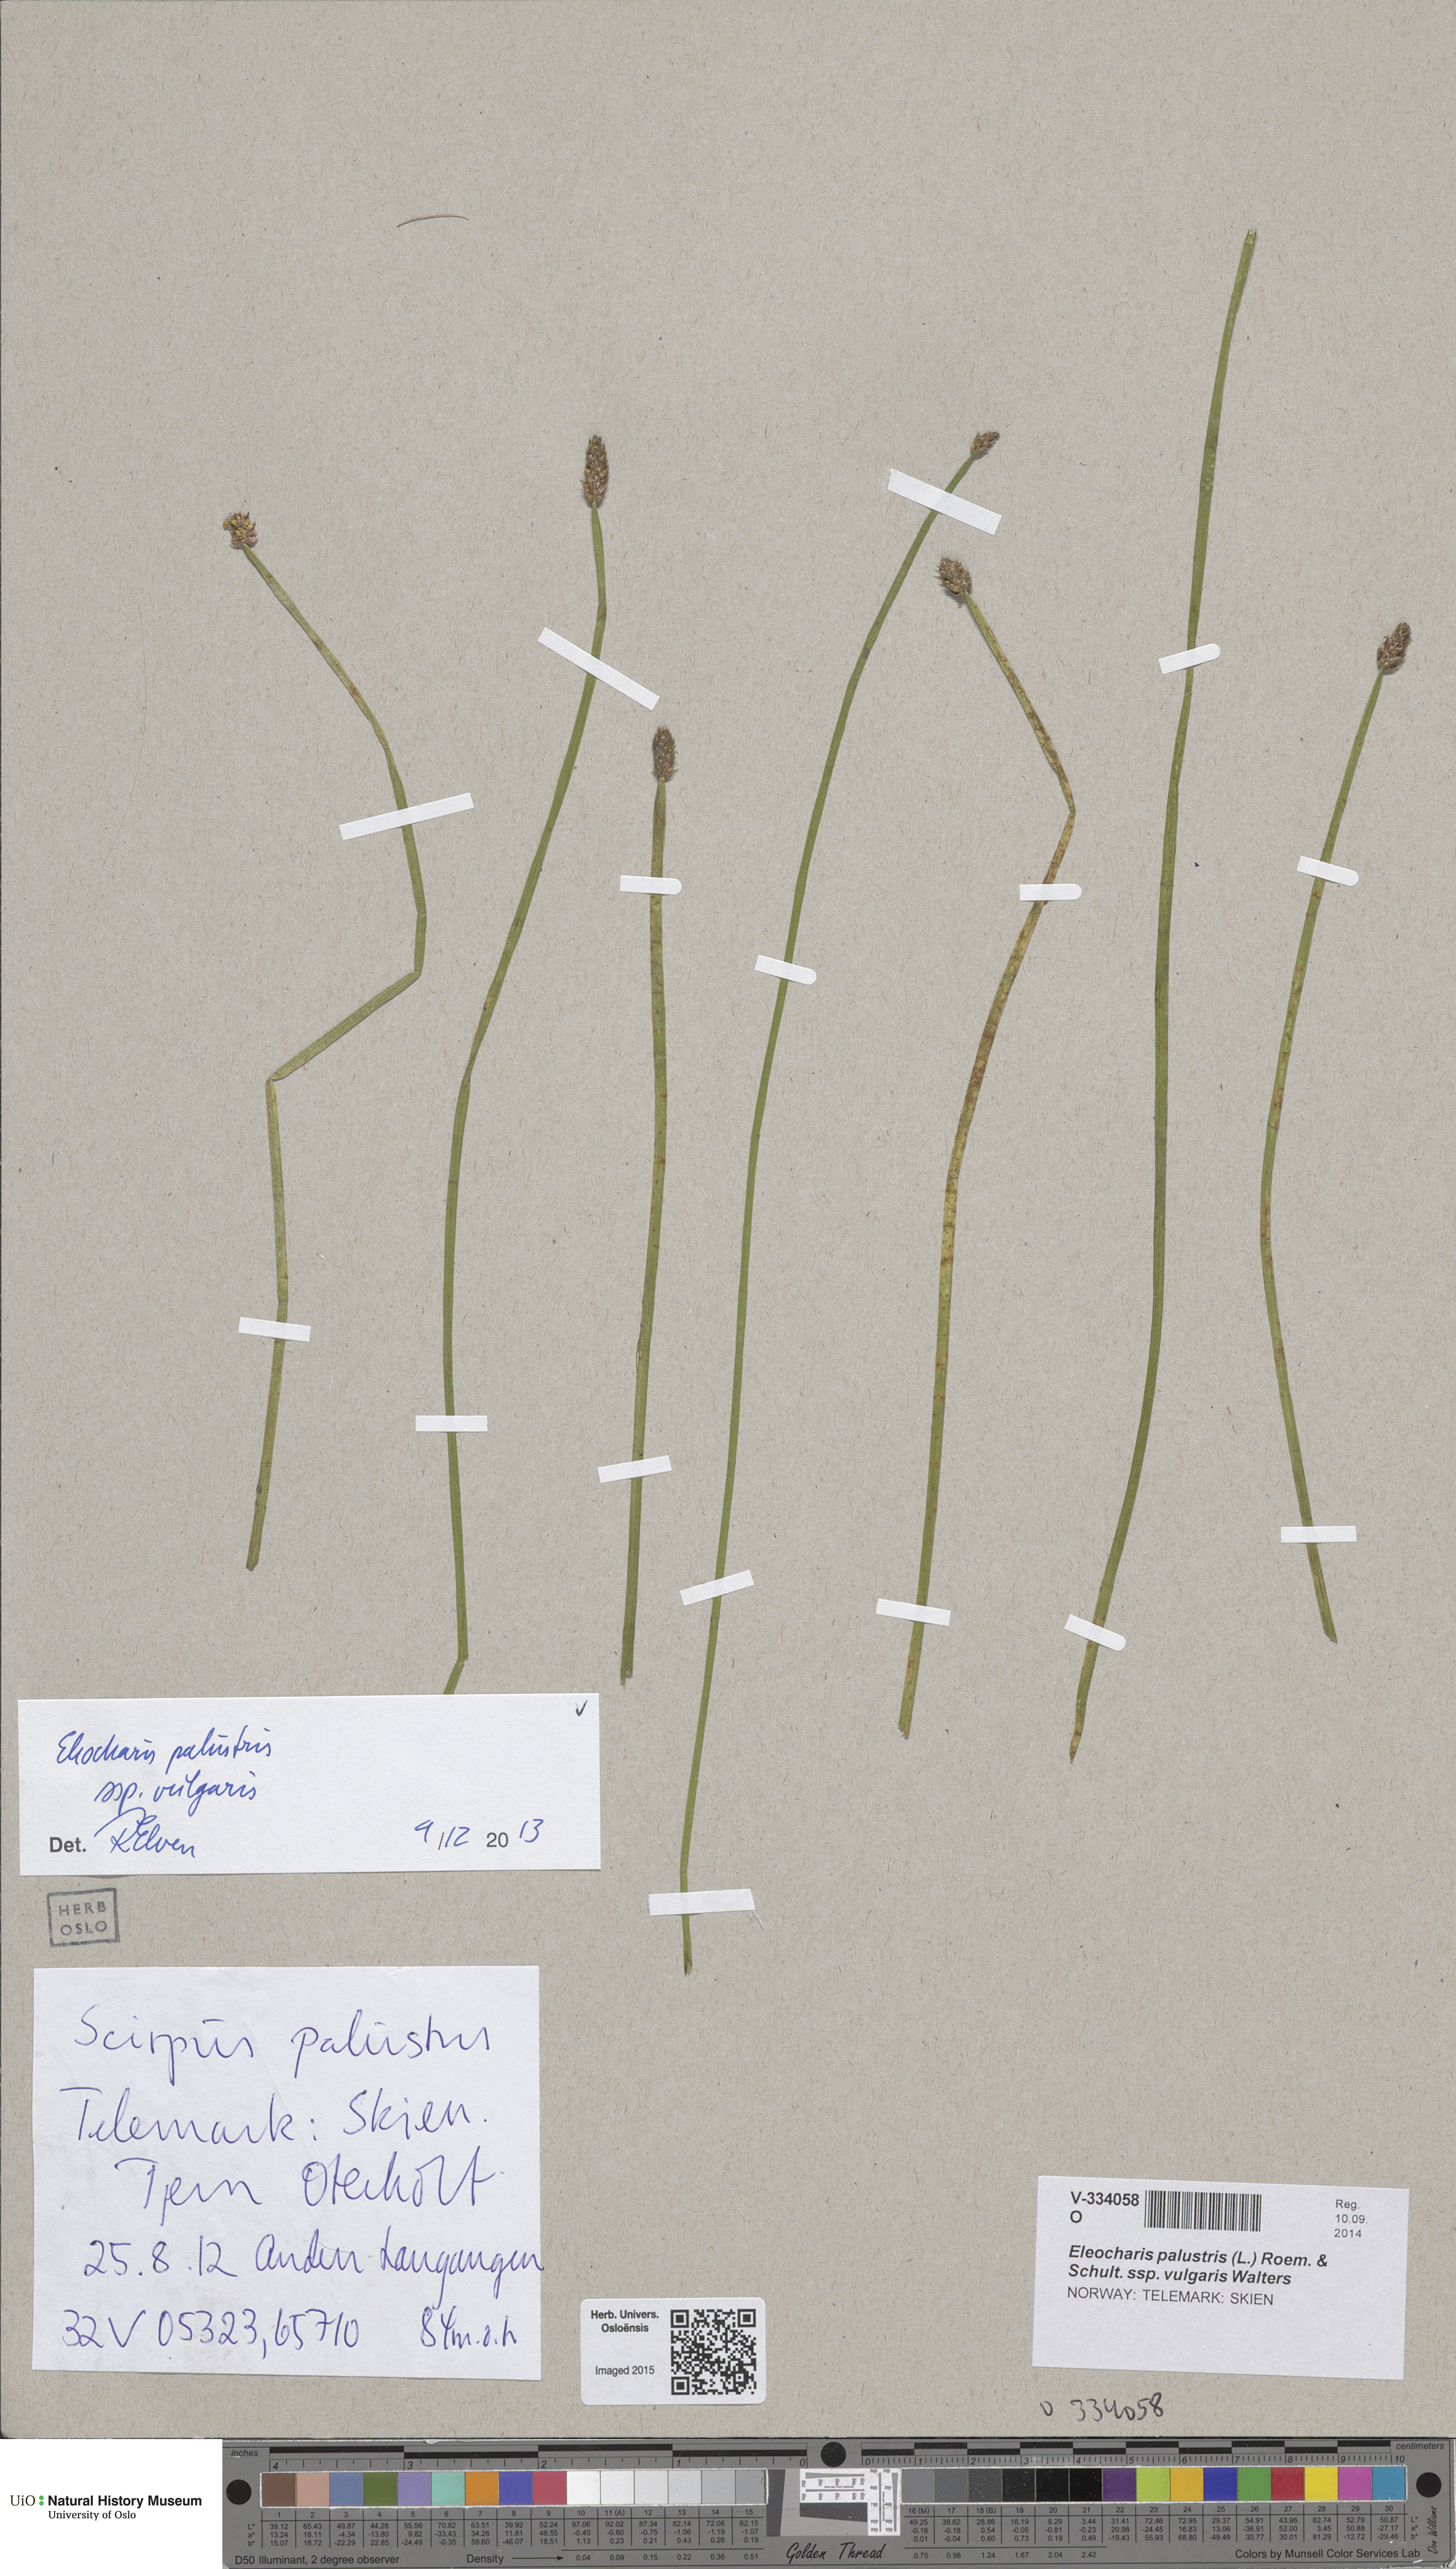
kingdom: Plantae
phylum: Tracheophyta
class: Liliopsida
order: Poales
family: Cyperaceae
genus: Eleocharis
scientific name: Eleocharis palustris
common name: Common spike-rush
